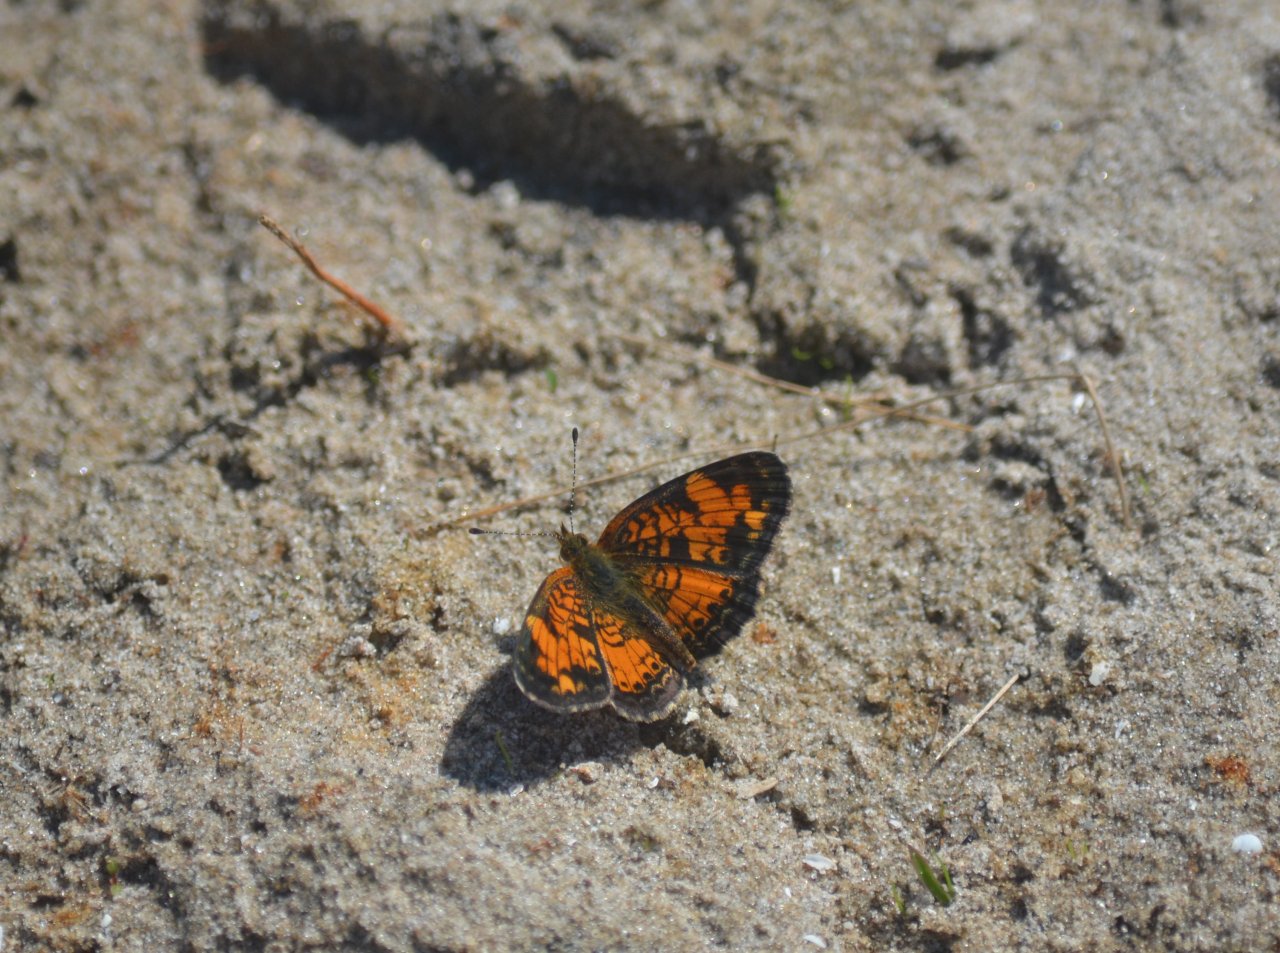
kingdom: Animalia
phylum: Arthropoda
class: Insecta
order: Lepidoptera
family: Nymphalidae
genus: Phyciodes
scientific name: Phyciodes tharos
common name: Northern Crescent
